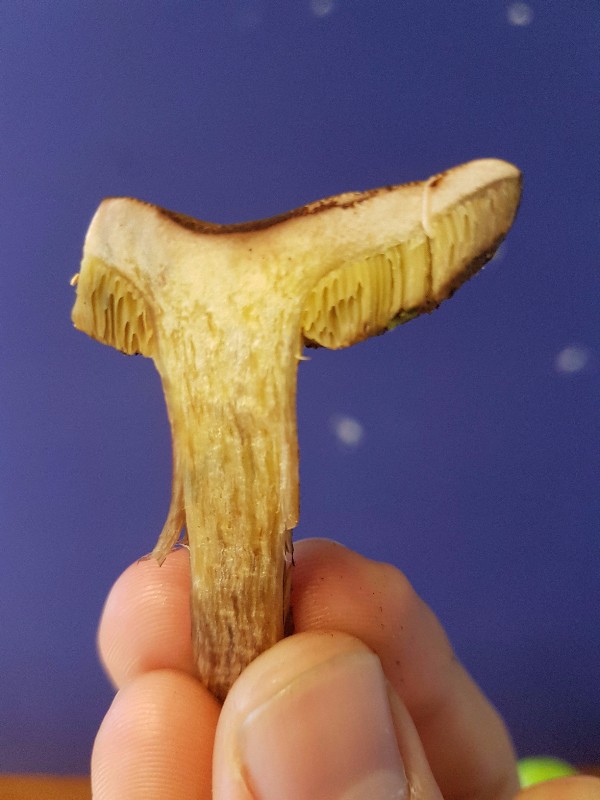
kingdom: Fungi
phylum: Basidiomycota
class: Agaricomycetes
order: Boletales
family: Boletaceae
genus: Hortiboletus
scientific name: Hortiboletus rubellus
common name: blodrød rørhat
